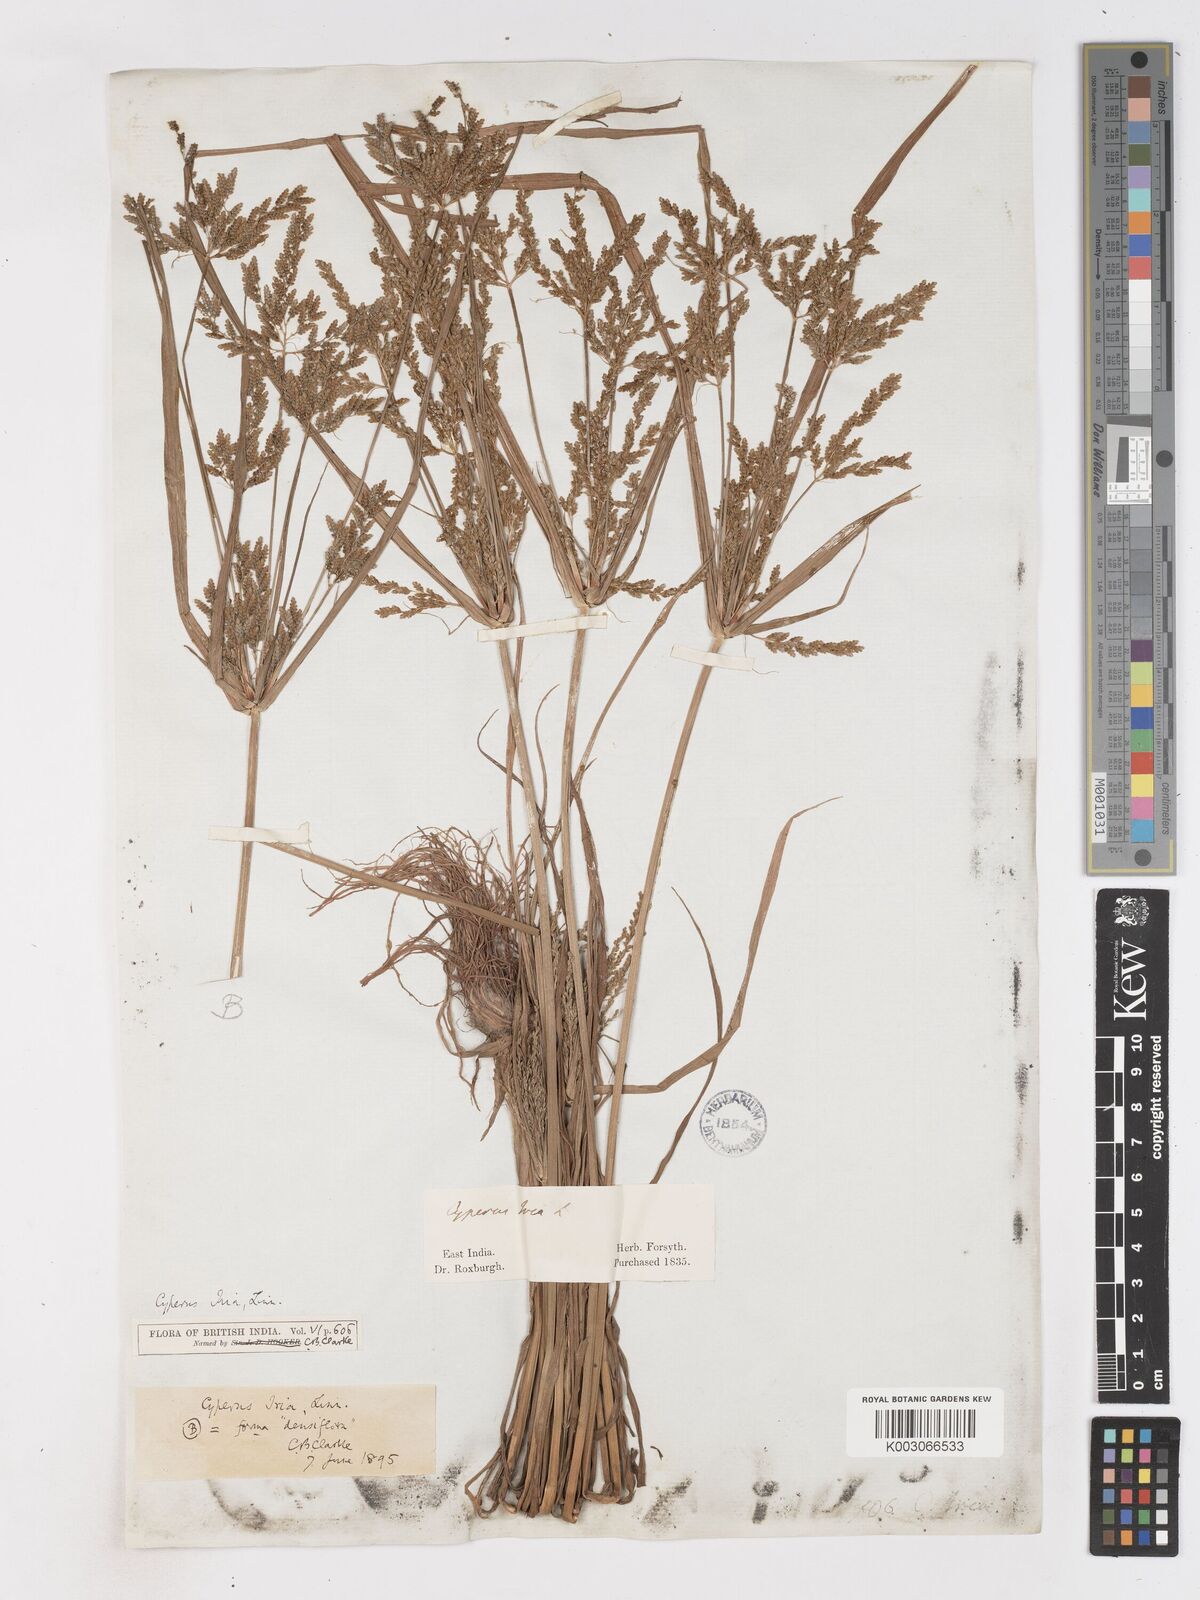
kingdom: Plantae
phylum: Tracheophyta
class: Liliopsida
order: Poales
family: Cyperaceae
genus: Cyperus
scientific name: Cyperus iria
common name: Ricefield flatsedge
